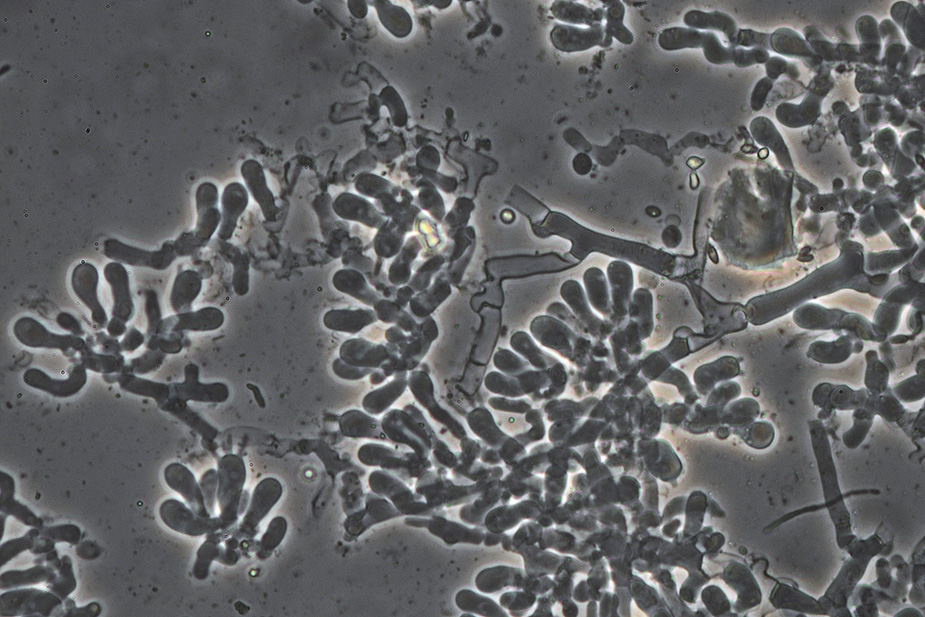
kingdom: Fungi
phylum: Basidiomycota
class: Agaricomycetes
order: Atheliales
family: Atheliaceae
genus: Athelia
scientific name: Athelia neuhoffii
